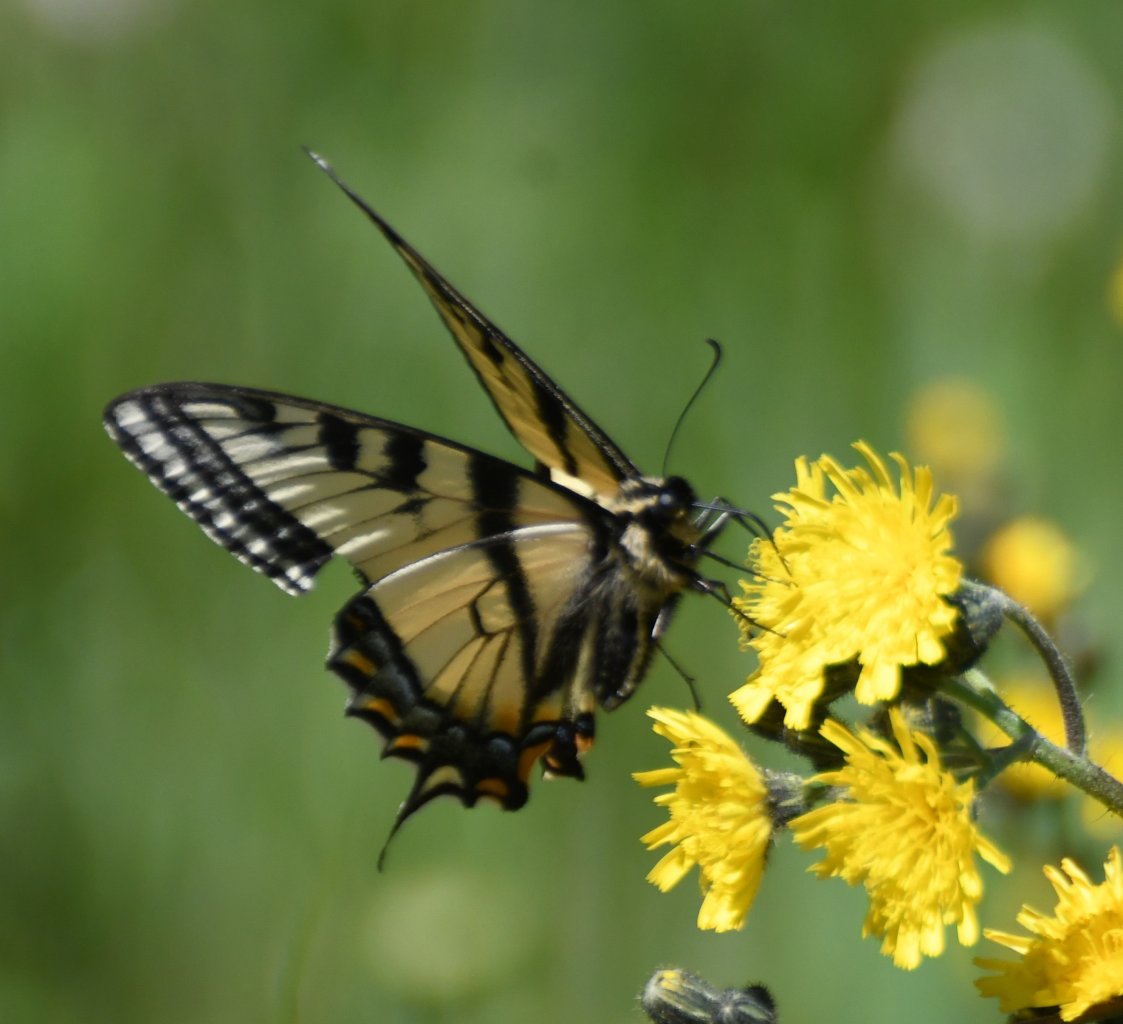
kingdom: Animalia
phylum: Arthropoda
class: Insecta
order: Lepidoptera
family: Papilionidae
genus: Pterourus
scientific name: Pterourus canadensis
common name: Canadian Tiger Swallowtail
